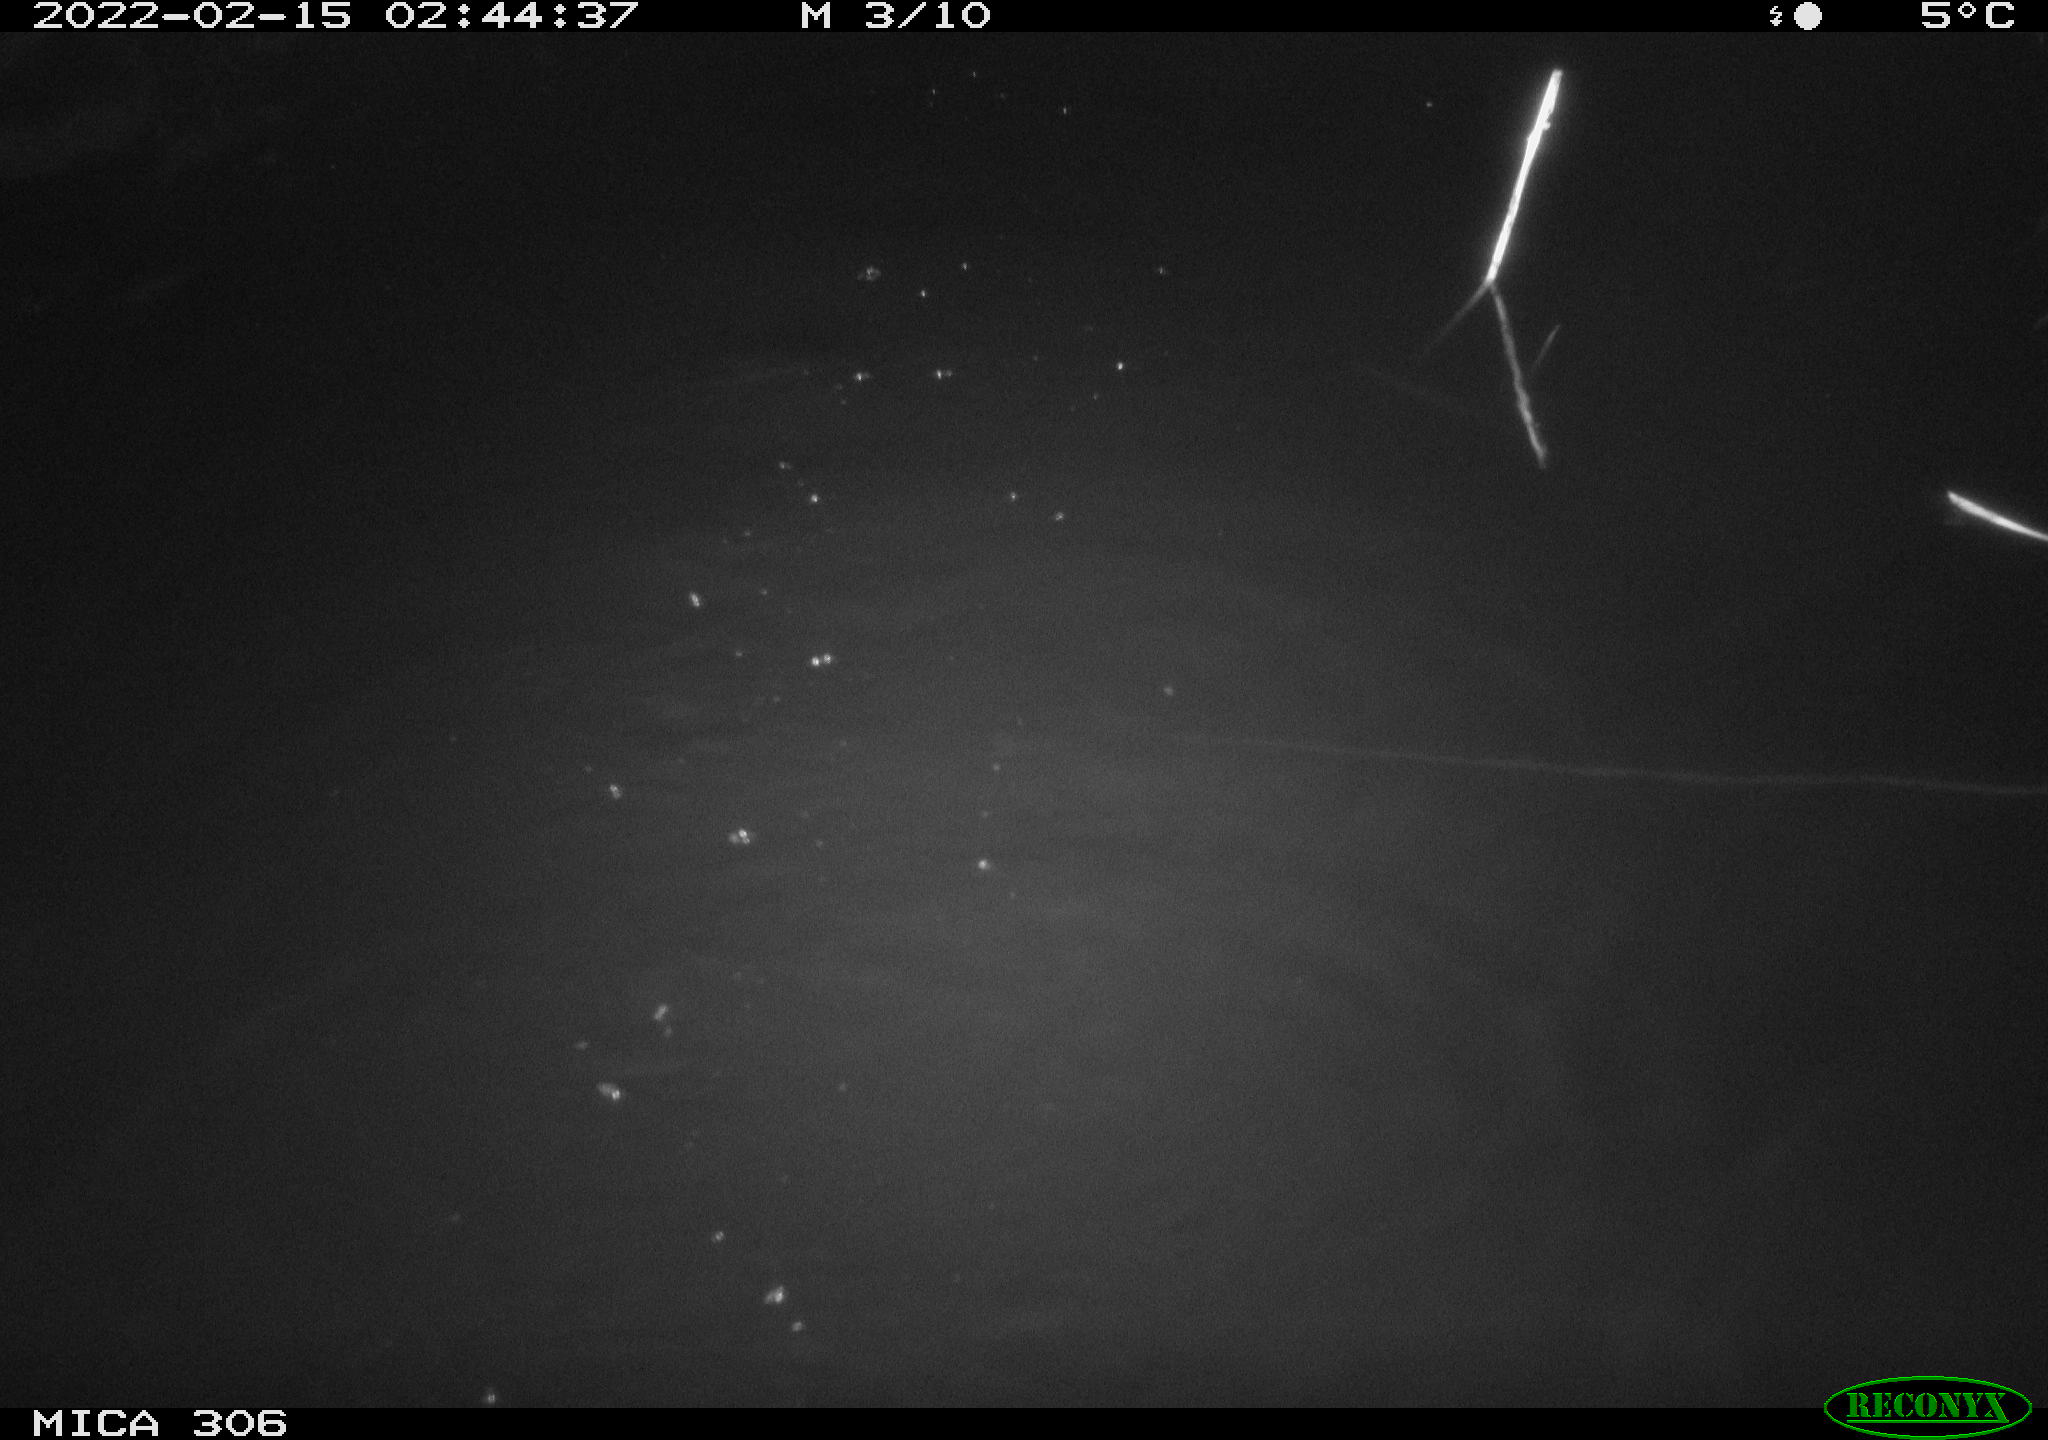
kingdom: Animalia
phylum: Chordata
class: Mammalia
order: Rodentia
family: Cricetidae
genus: Ondatra
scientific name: Ondatra zibethicus
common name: Muskrat
